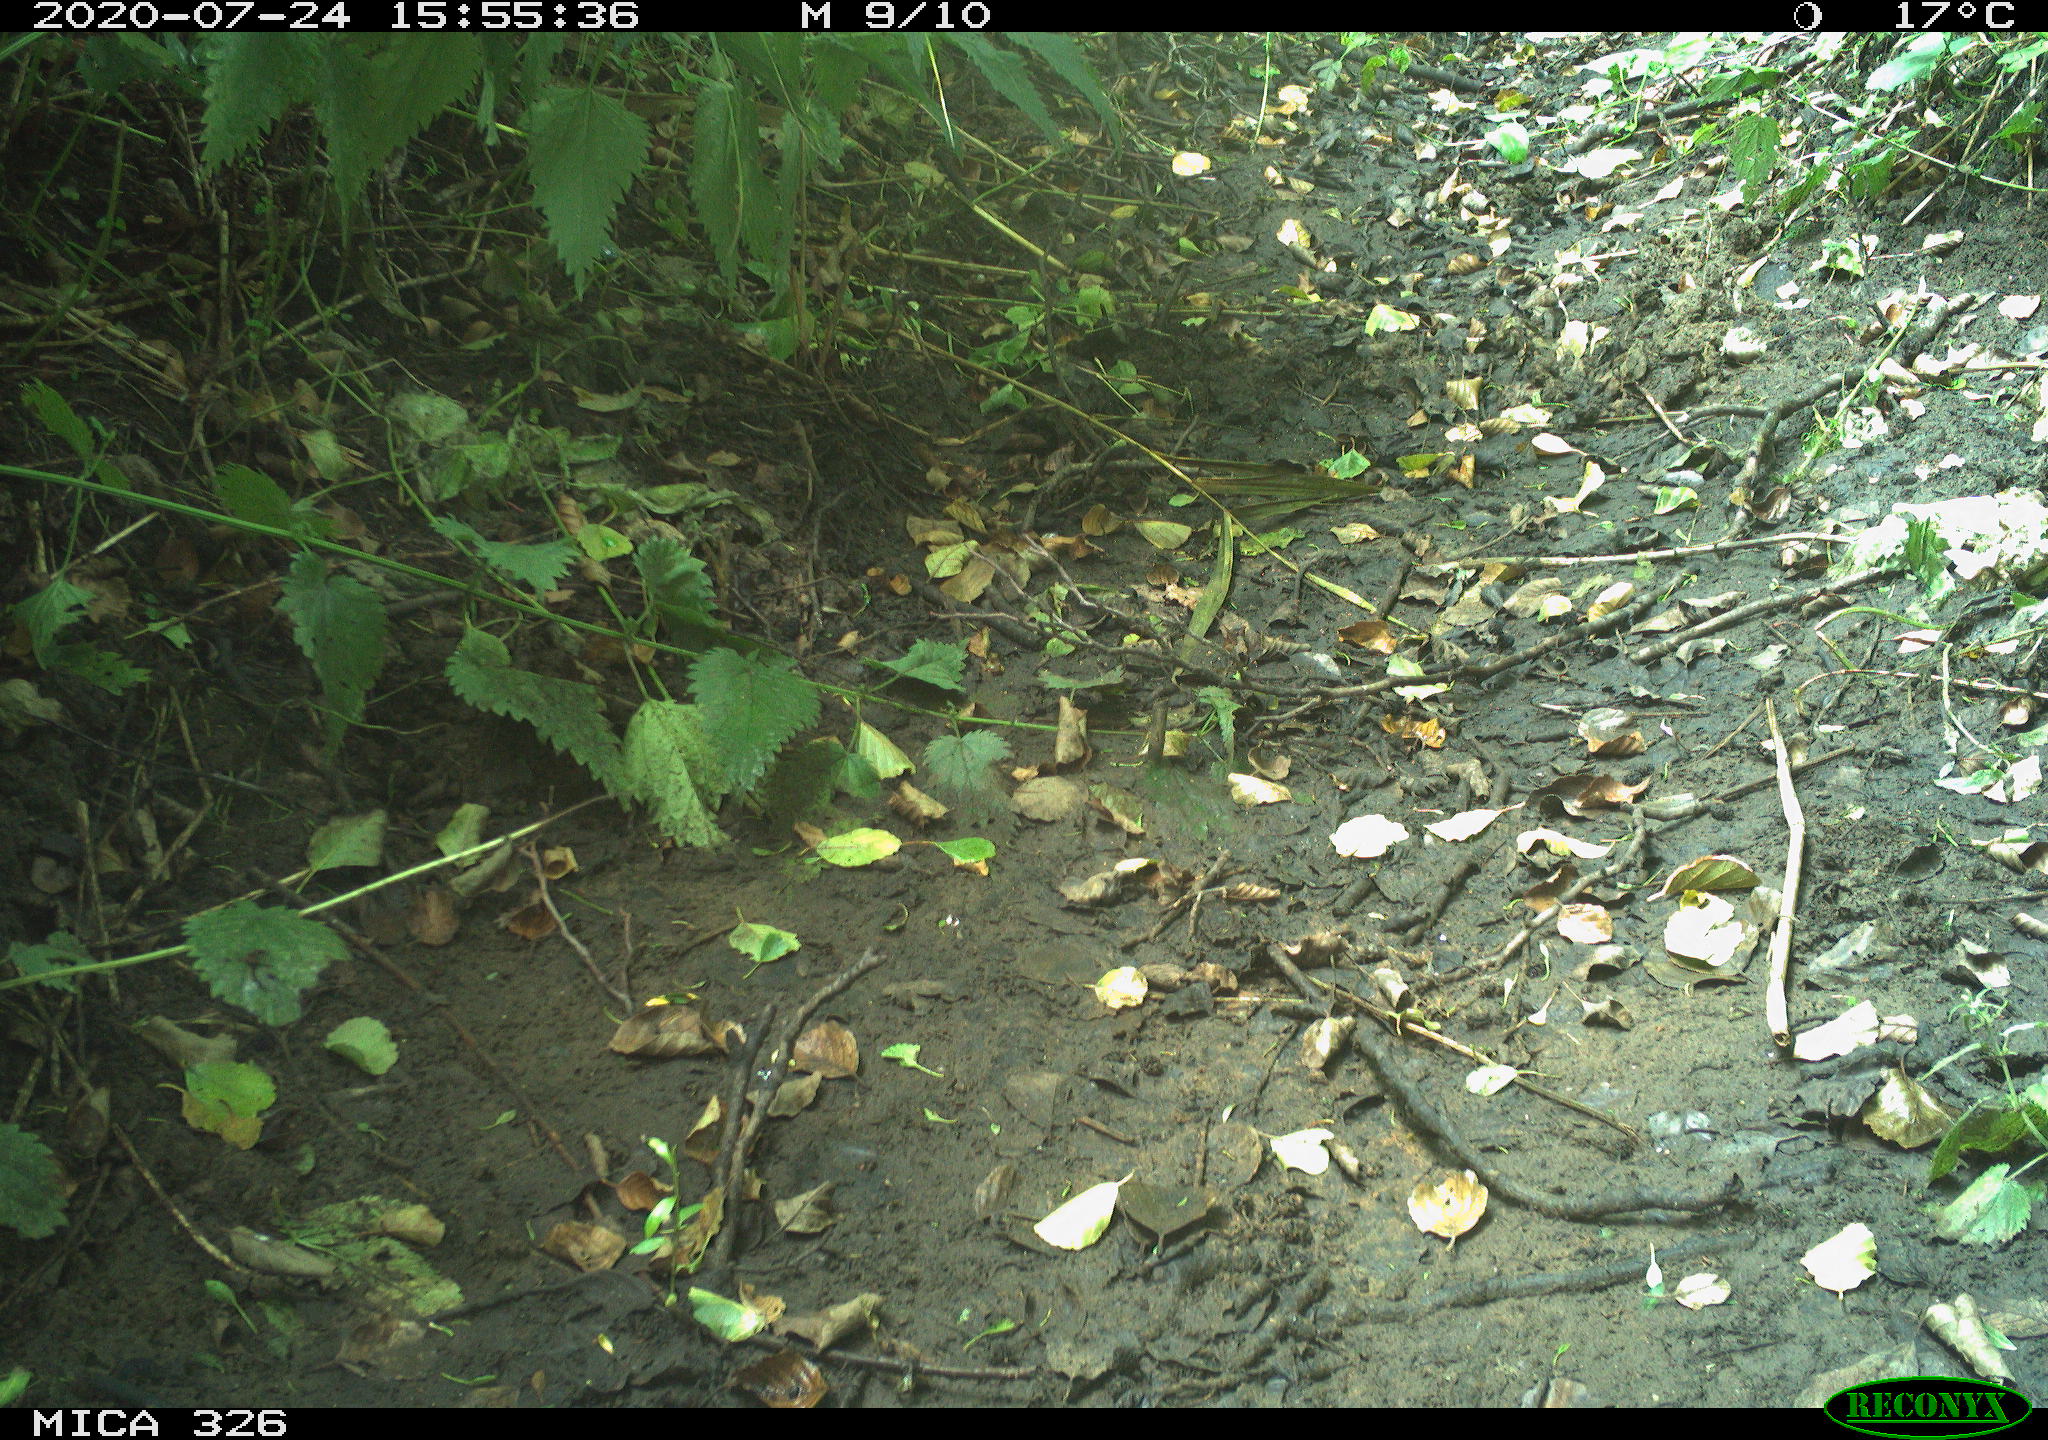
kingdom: Animalia
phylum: Chordata
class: Aves
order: Passeriformes
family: Turdidae
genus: Turdus
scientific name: Turdus philomelos
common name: Song thrush
